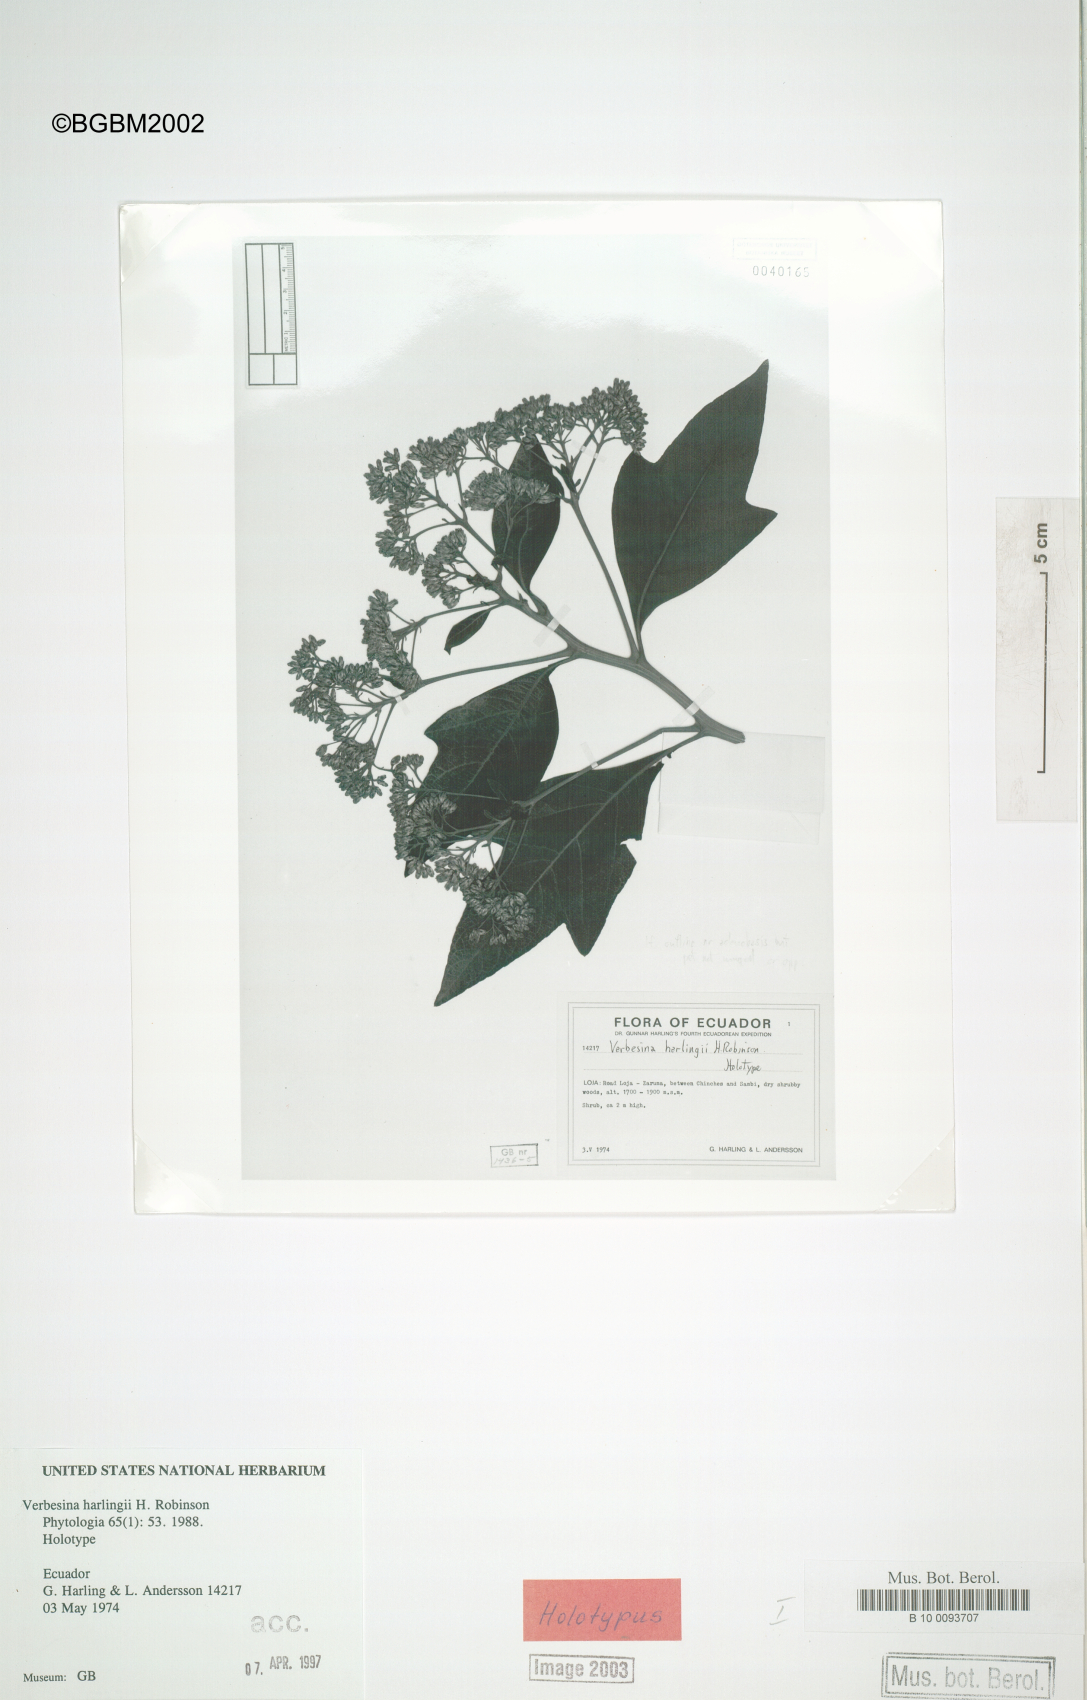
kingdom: Plantae
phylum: Tracheophyta
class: Magnoliopsida
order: Asterales
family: Asteraceae
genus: Verbesina
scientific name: Verbesina harlingii
